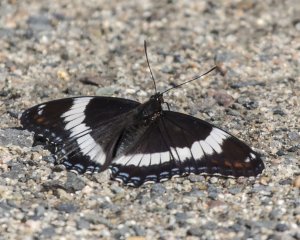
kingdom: Animalia
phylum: Arthropoda
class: Insecta
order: Lepidoptera
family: Nymphalidae
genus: Limenitis
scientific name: Limenitis arthemis
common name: Red-spotted Admiral
